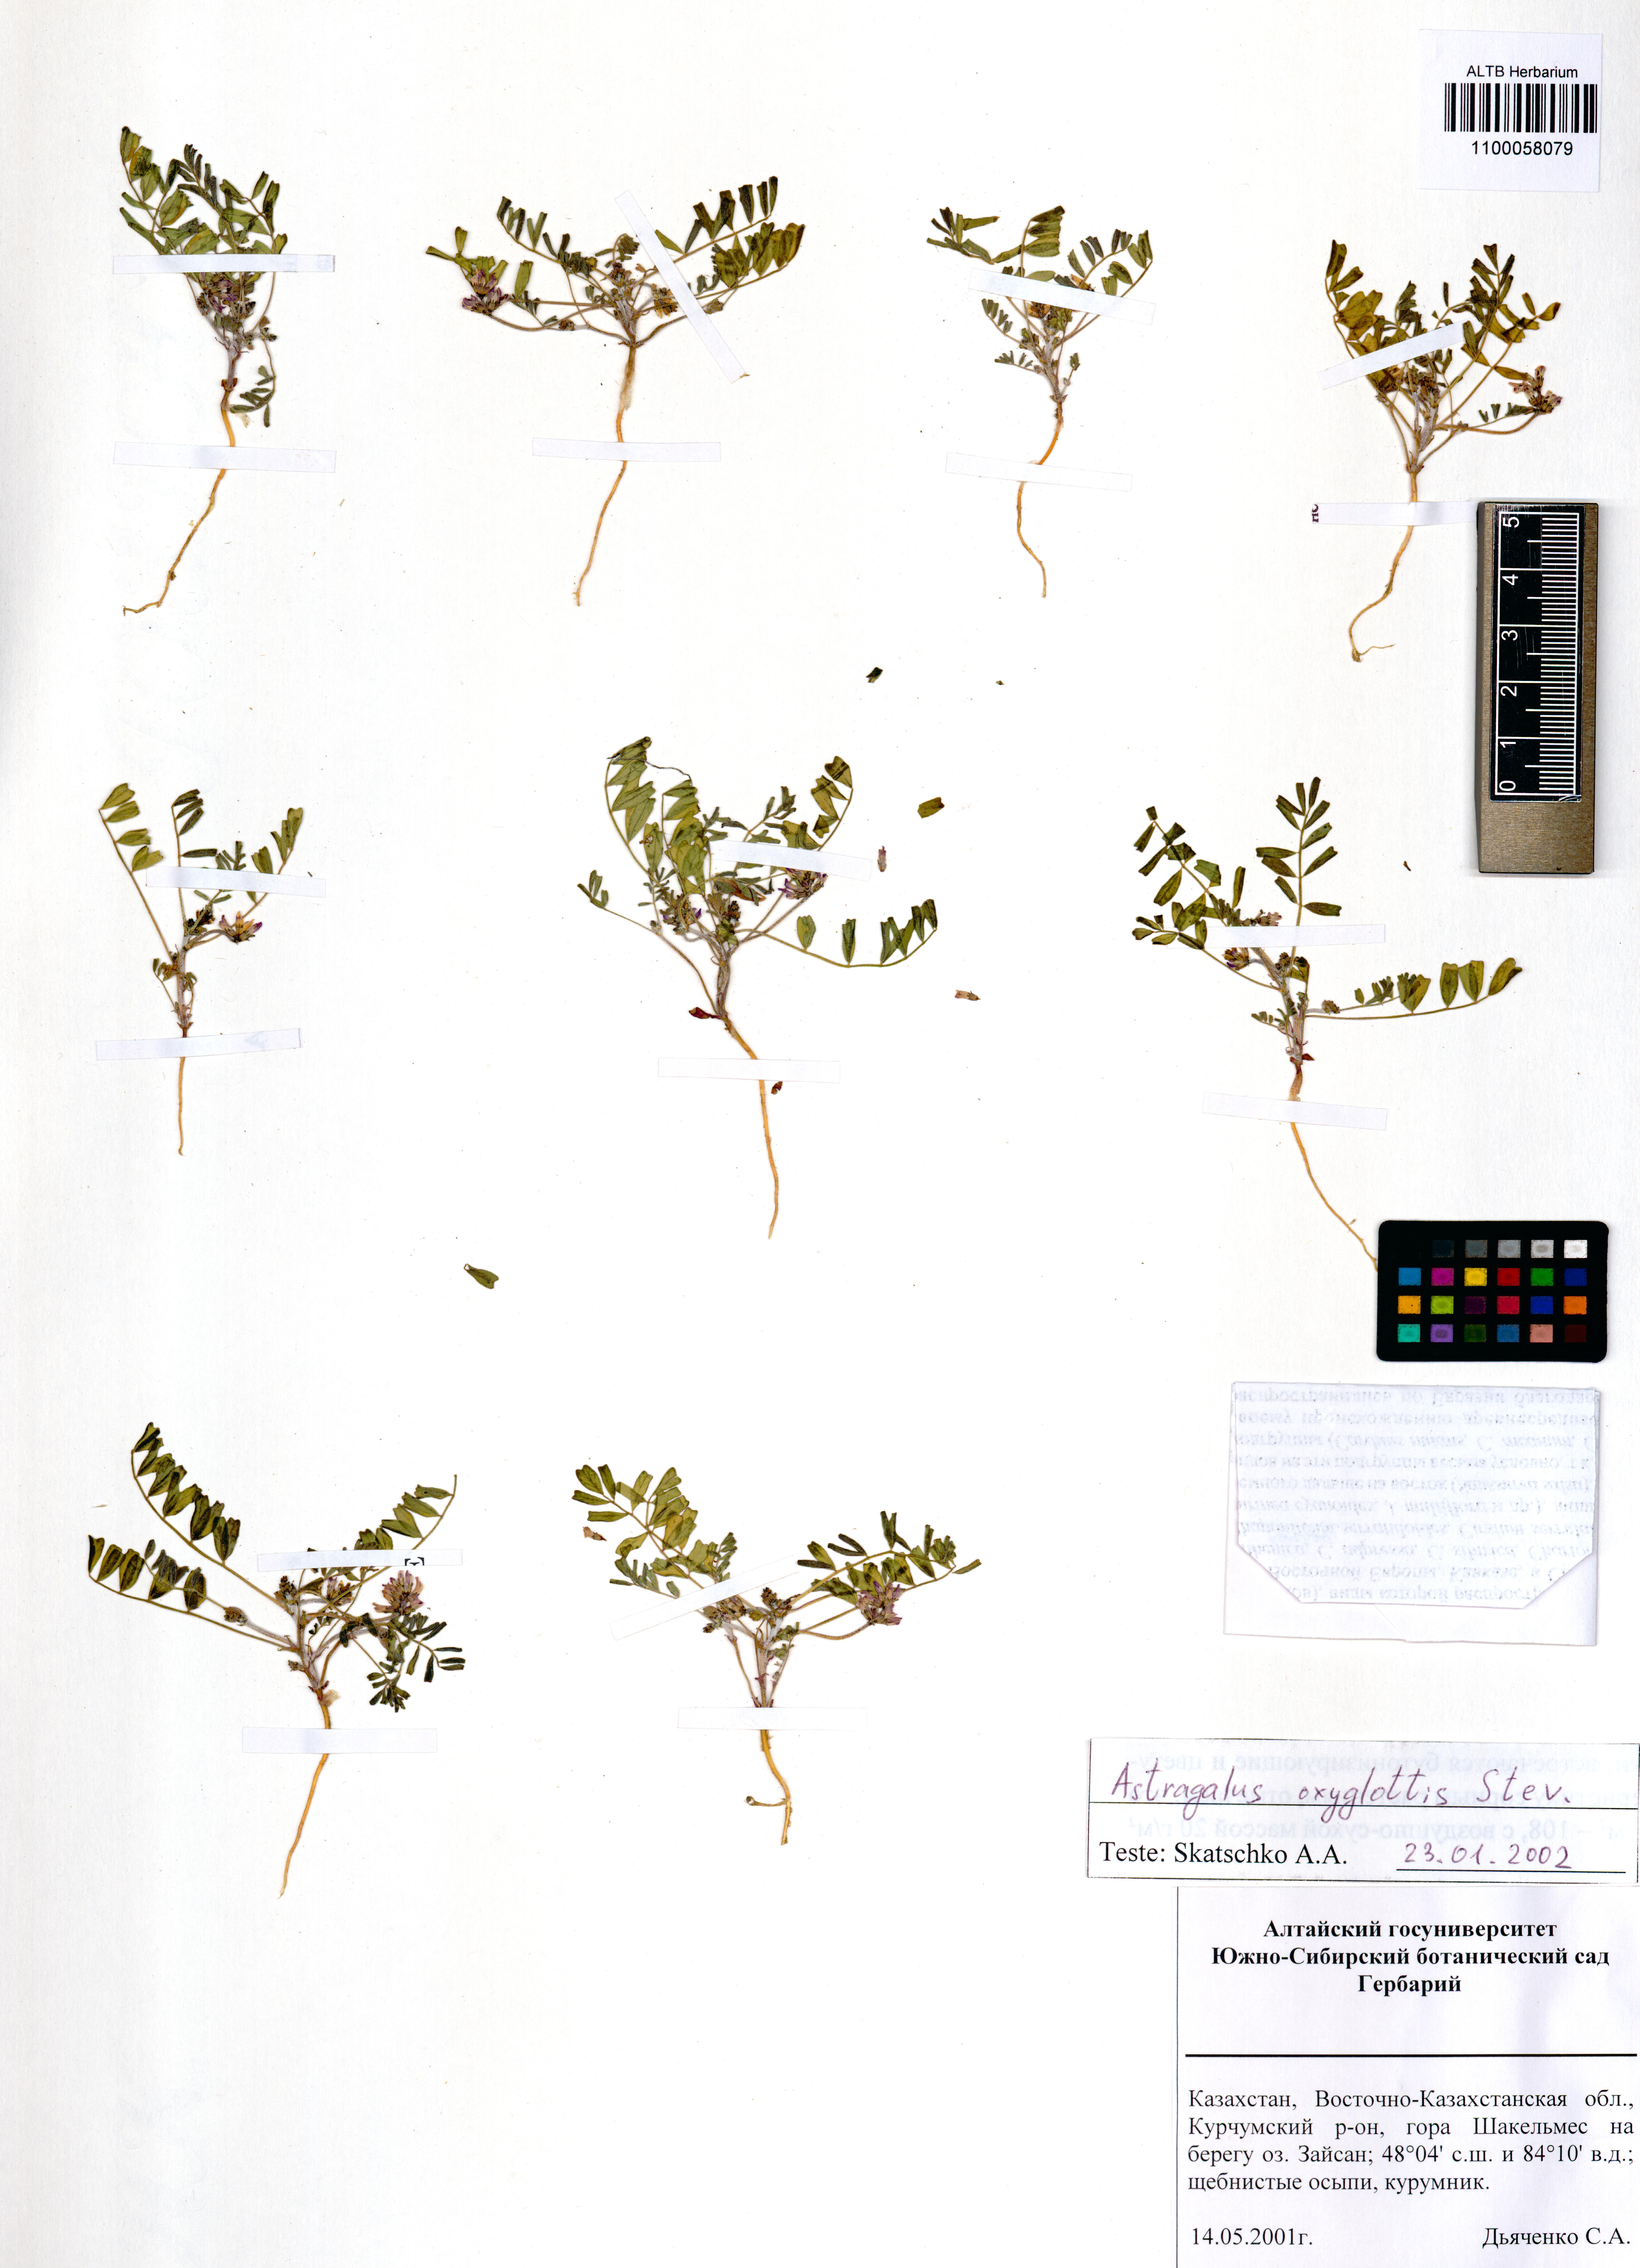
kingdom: Plantae
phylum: Tracheophyta
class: Magnoliopsida
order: Fabales
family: Fabaceae
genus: Astragalus
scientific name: Astragalus oxyglottis
